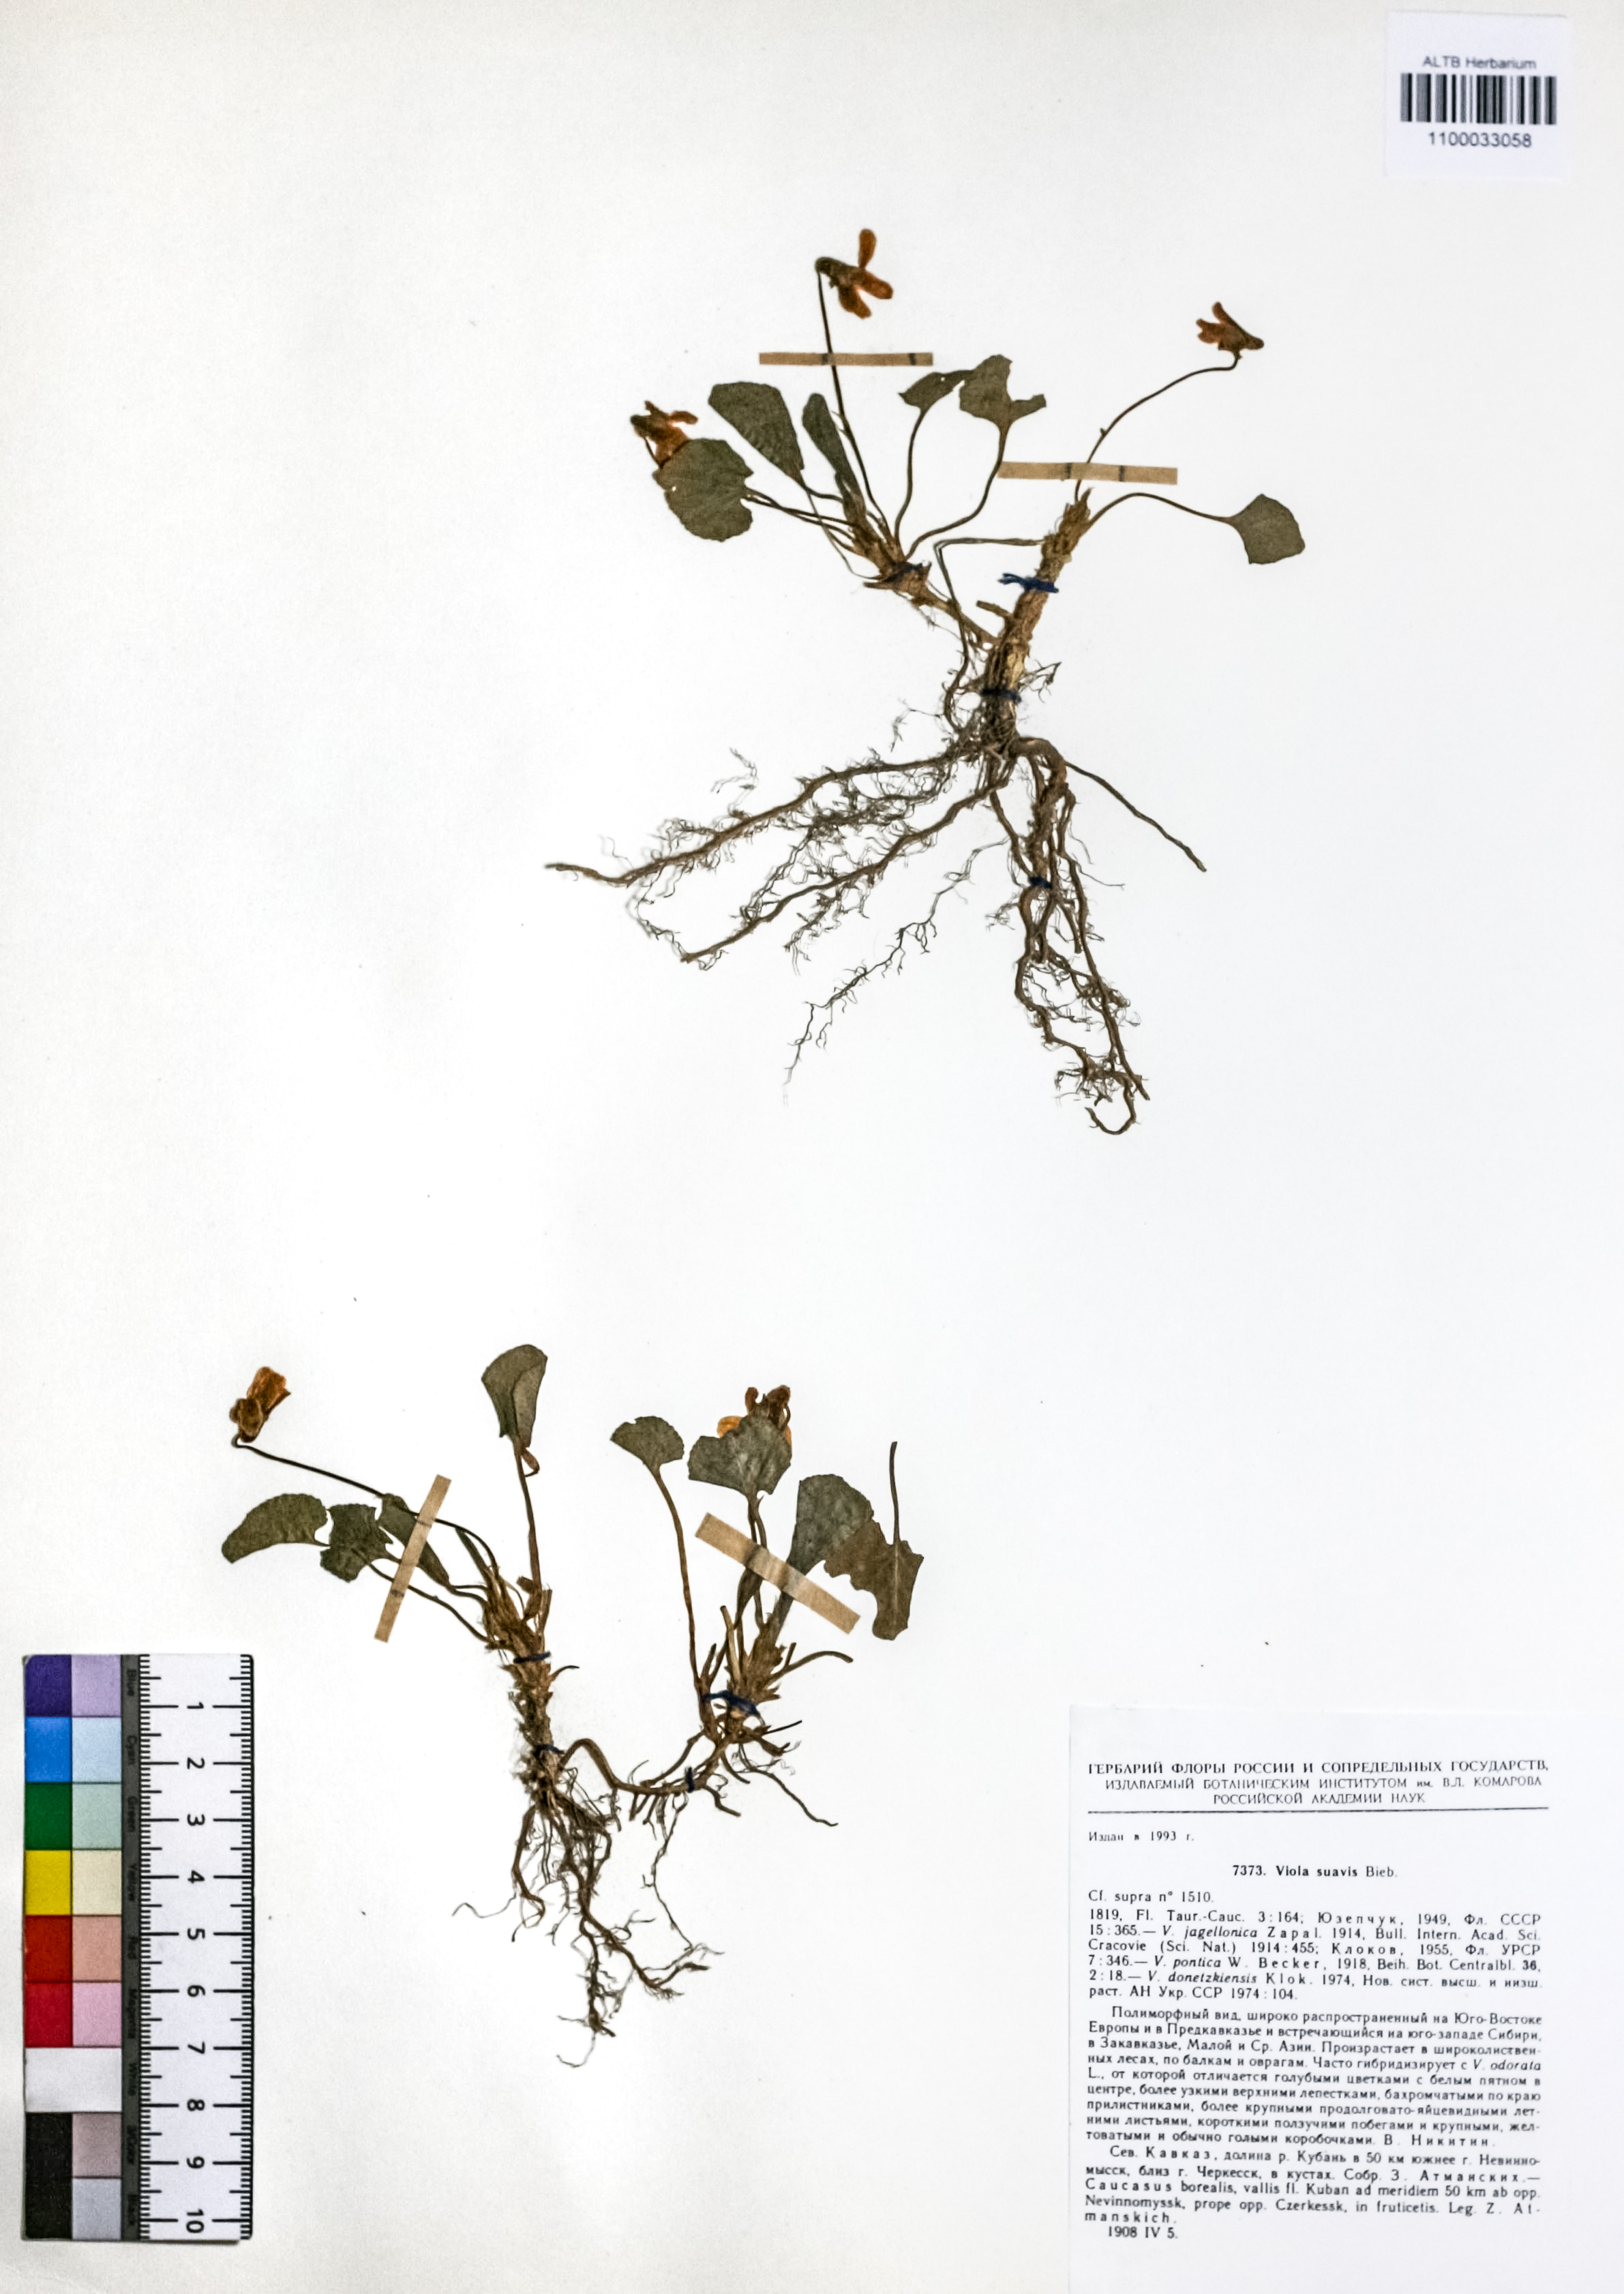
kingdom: Plantae
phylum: Tracheophyta
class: Magnoliopsida
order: Malpighiales
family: Violaceae
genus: Viola
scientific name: Viola suavis
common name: Russian violet
